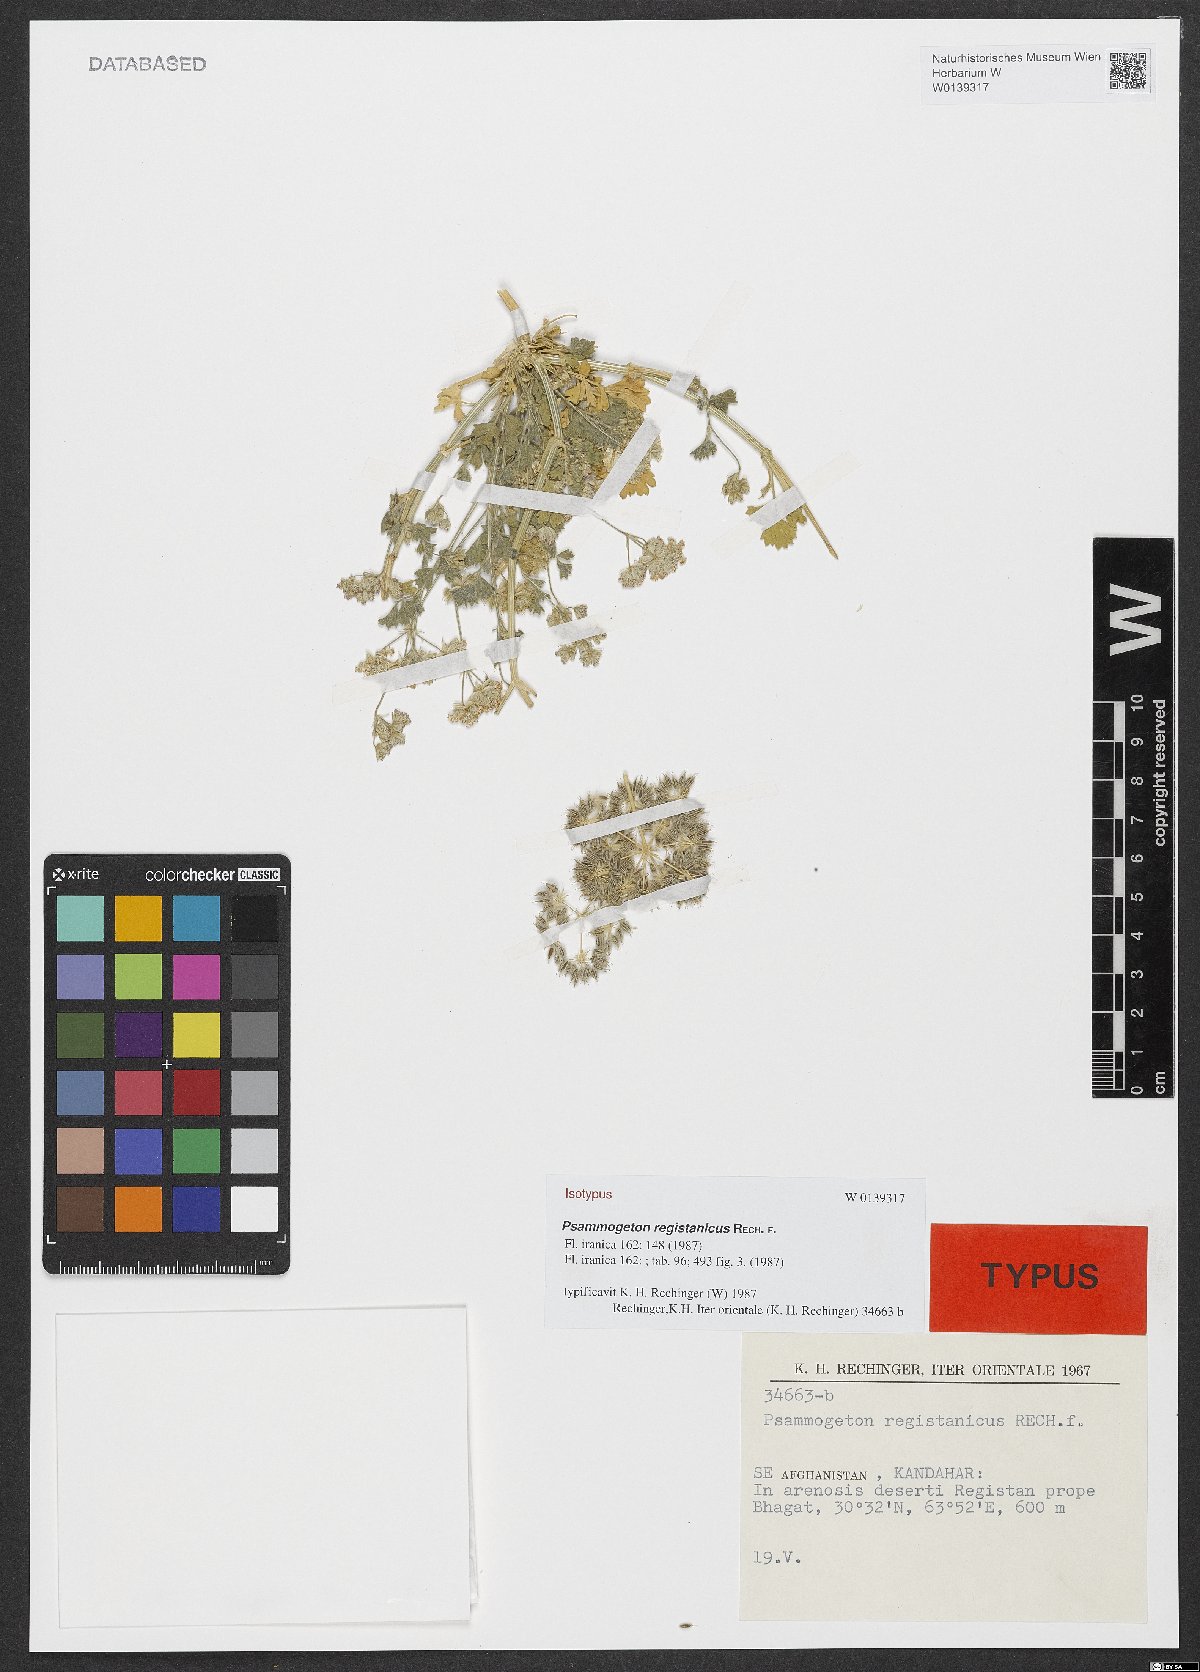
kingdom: Plantae
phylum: Tracheophyta
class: Magnoliopsida
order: Apiales
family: Apiaceae
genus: Psammogeton
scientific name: Psammogeton registanicus
